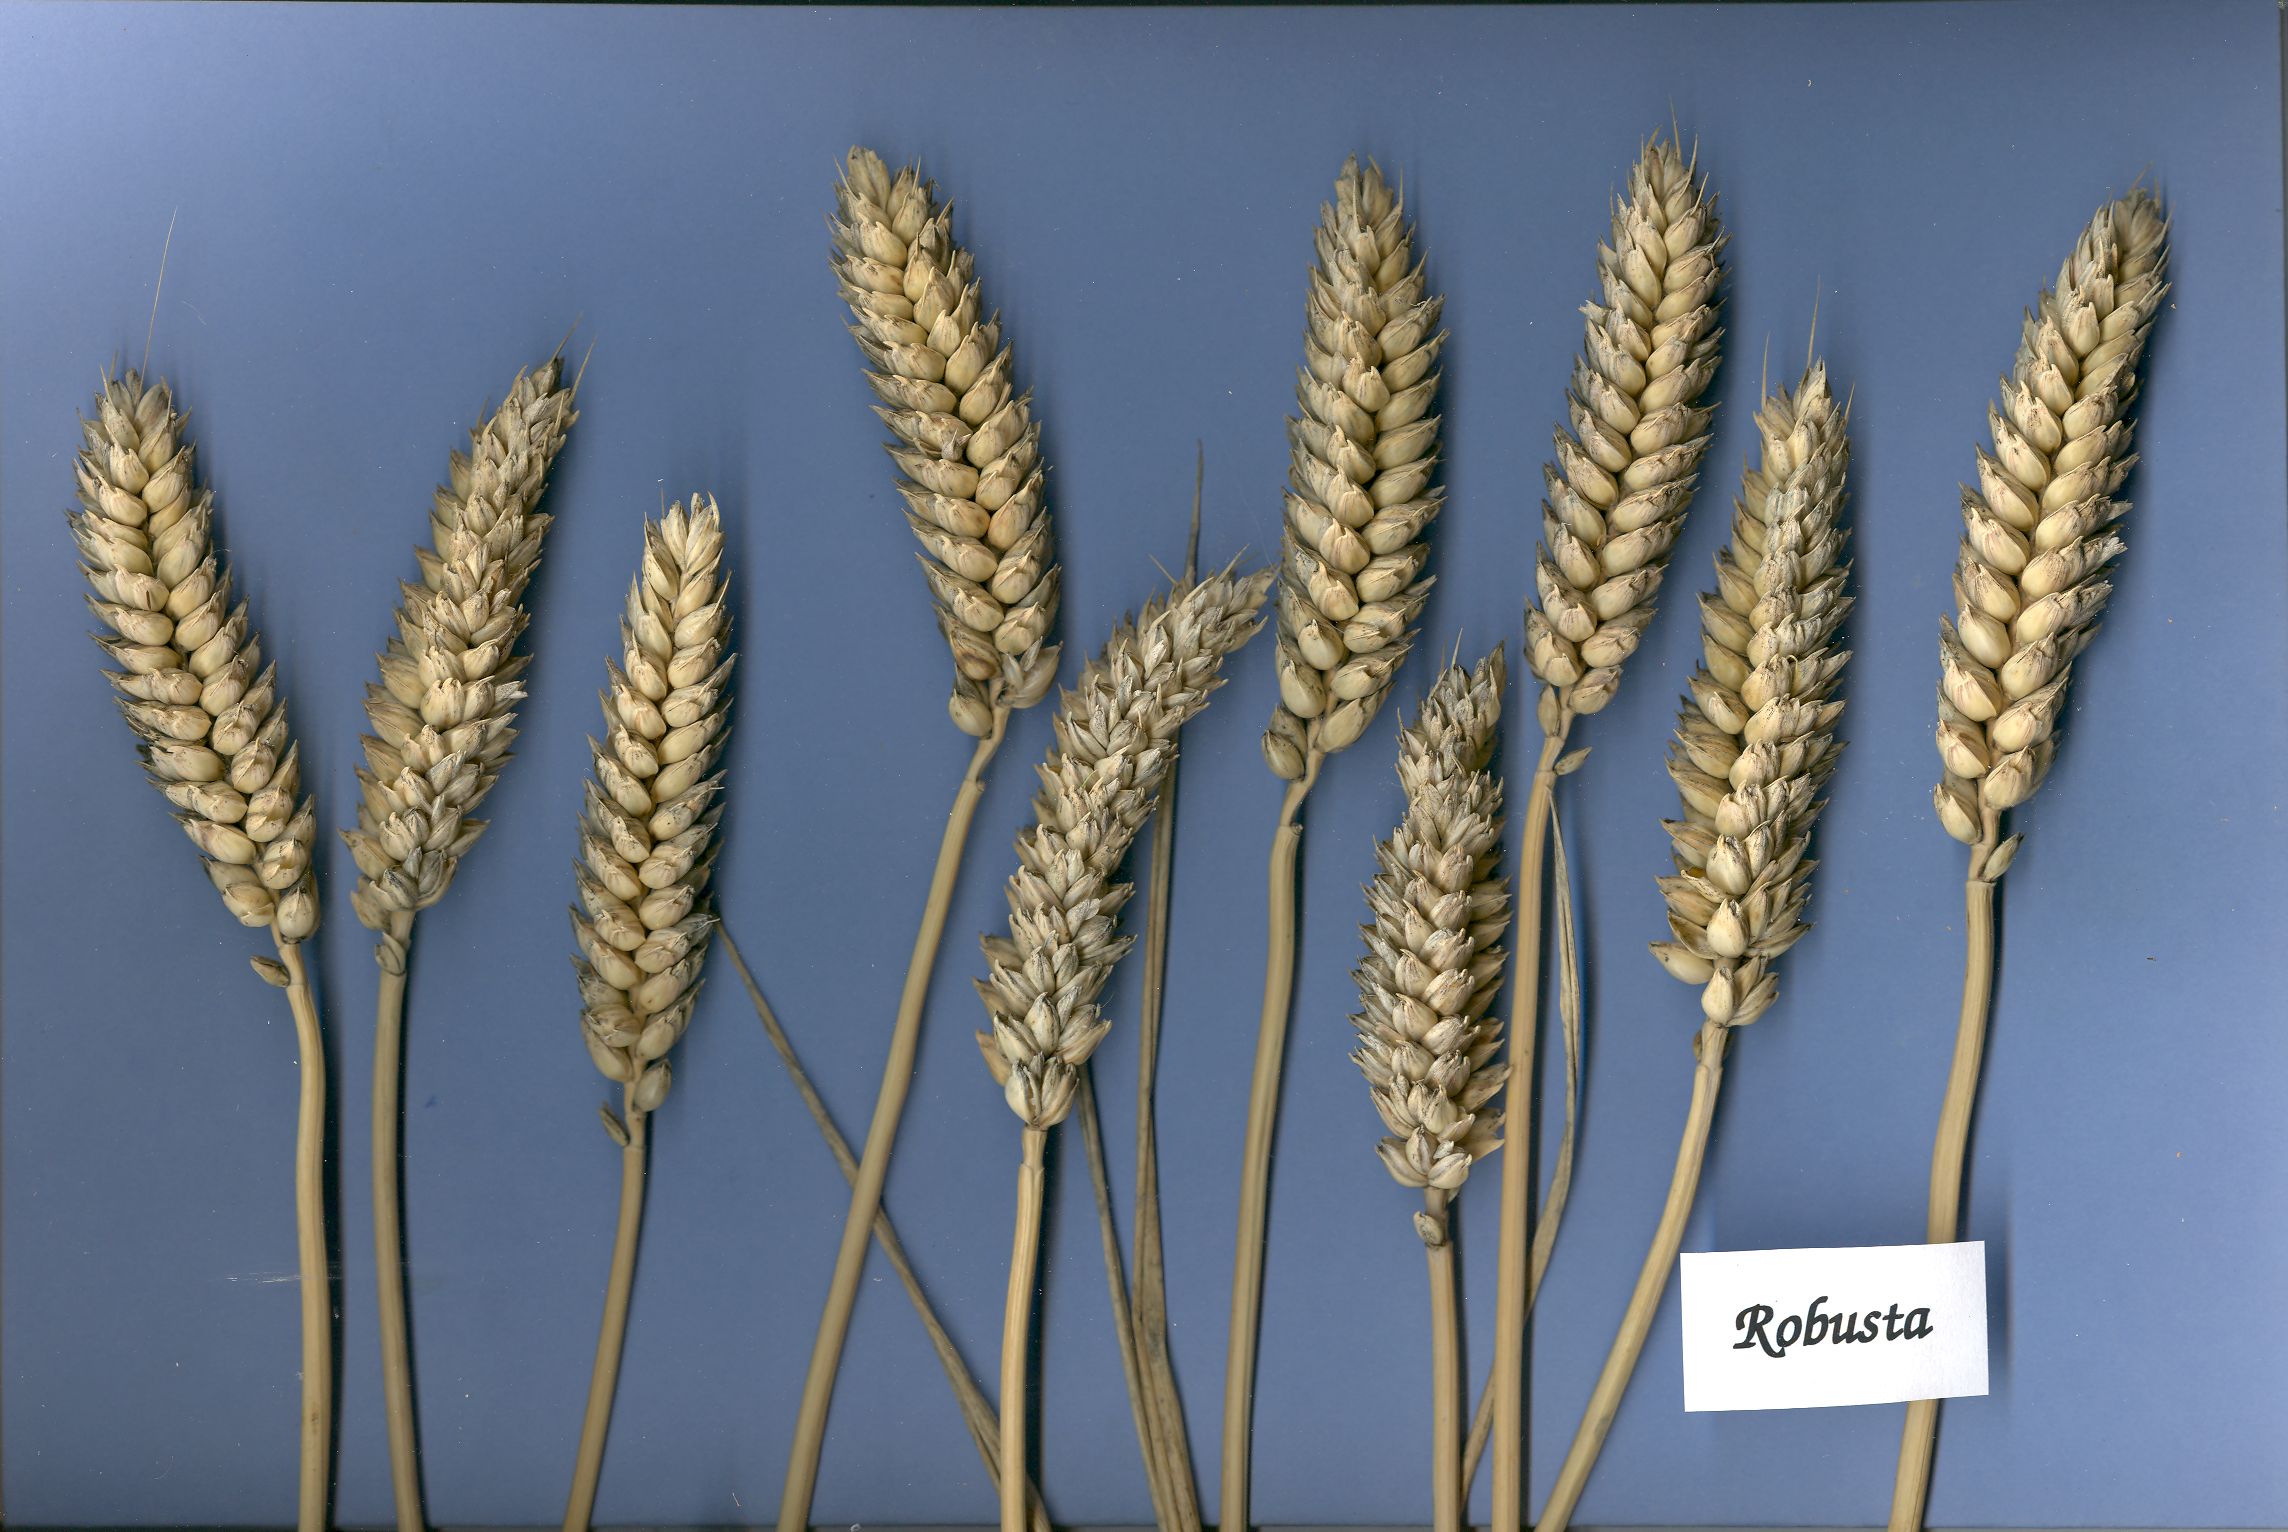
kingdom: Plantae
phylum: Tracheophyta
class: Liliopsida
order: Poales
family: Poaceae
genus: Triticum
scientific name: Triticum aestivum
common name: Common wheat
